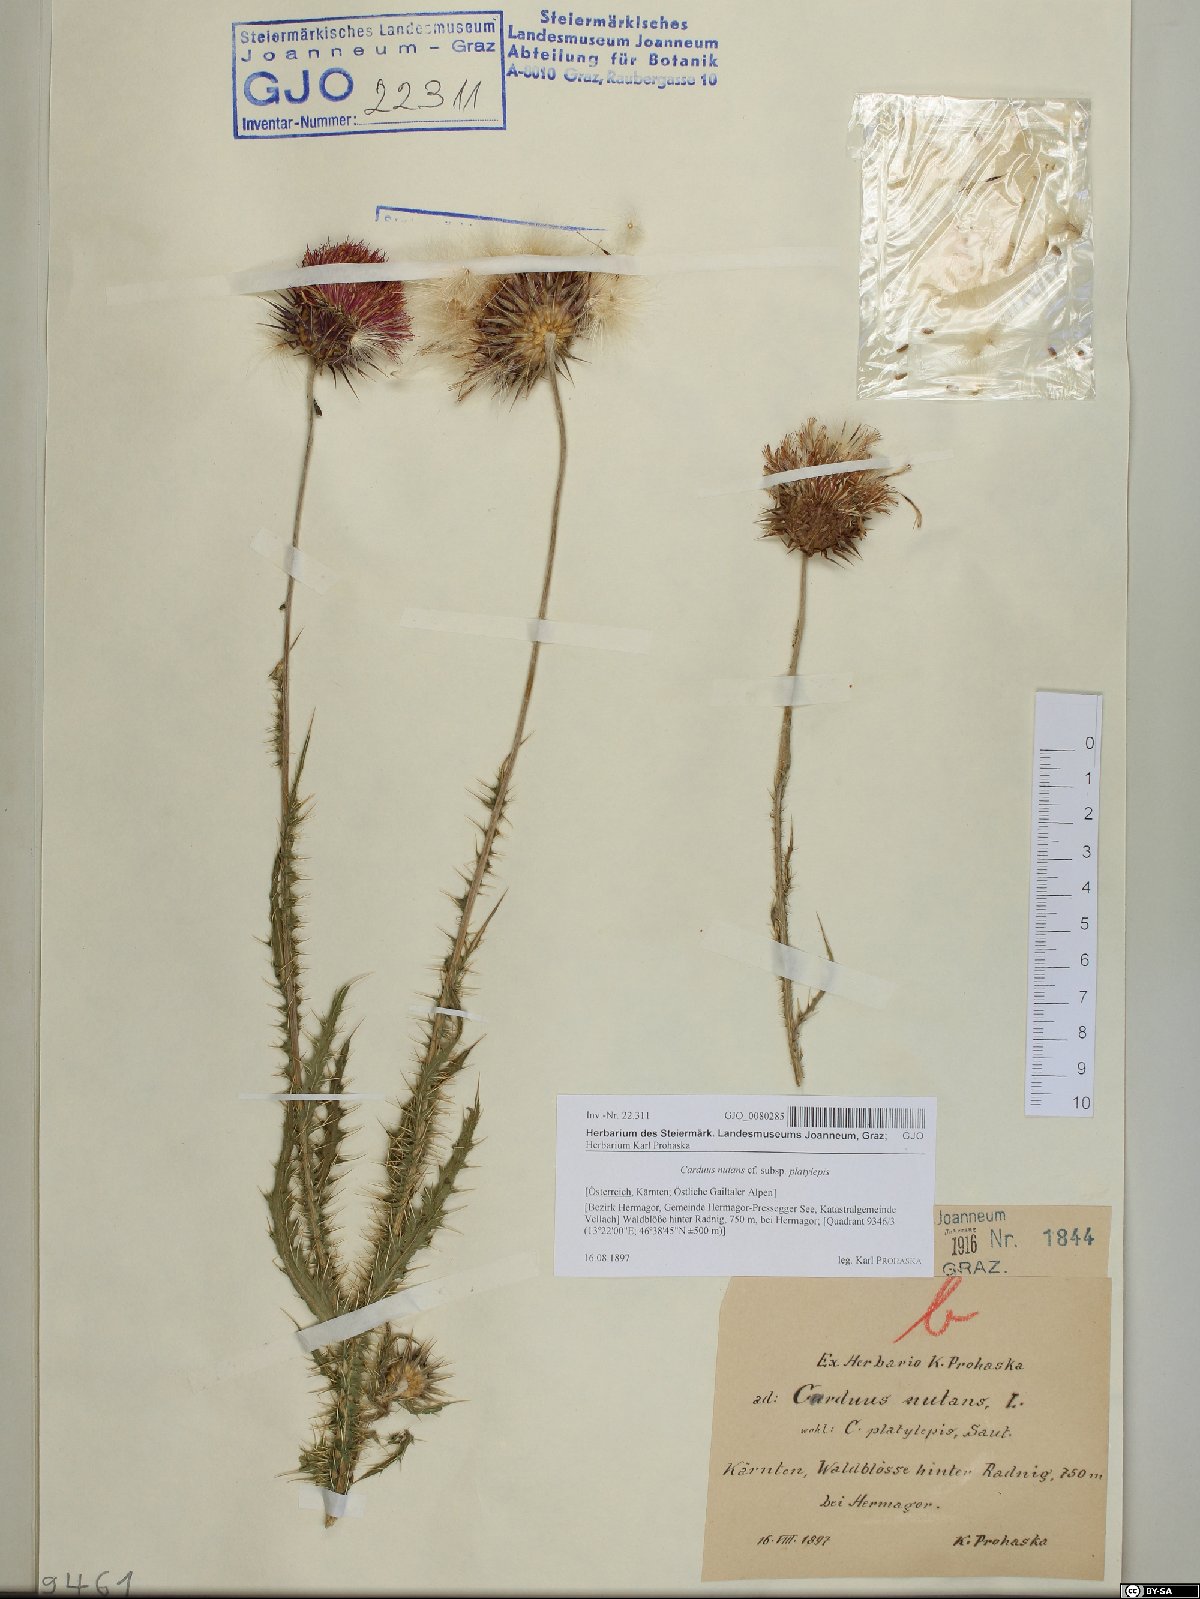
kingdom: Plantae
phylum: Tracheophyta
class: Magnoliopsida
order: Asterales
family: Asteraceae
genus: Carduus
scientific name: Carduus nutans
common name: Musk thistle
